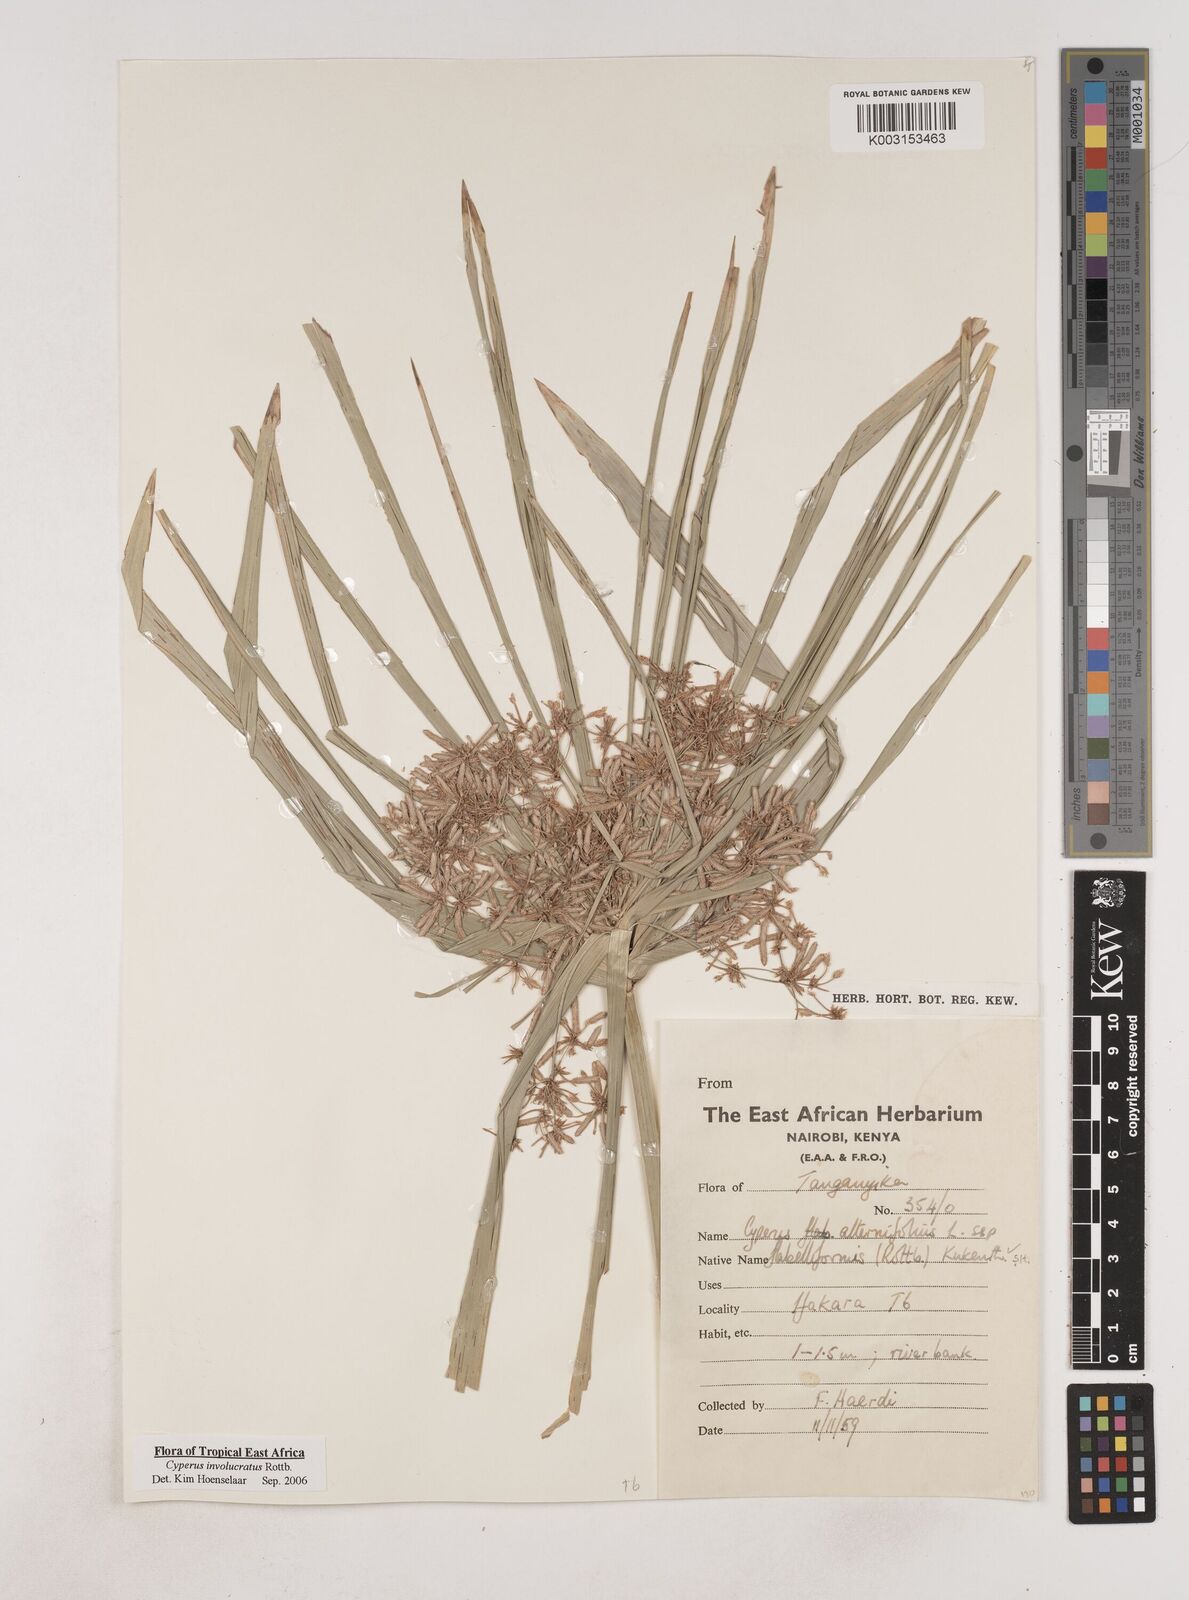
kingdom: Plantae
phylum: Tracheophyta
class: Liliopsida
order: Poales
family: Cyperaceae
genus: Cyperus
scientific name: Cyperus alternifolius
